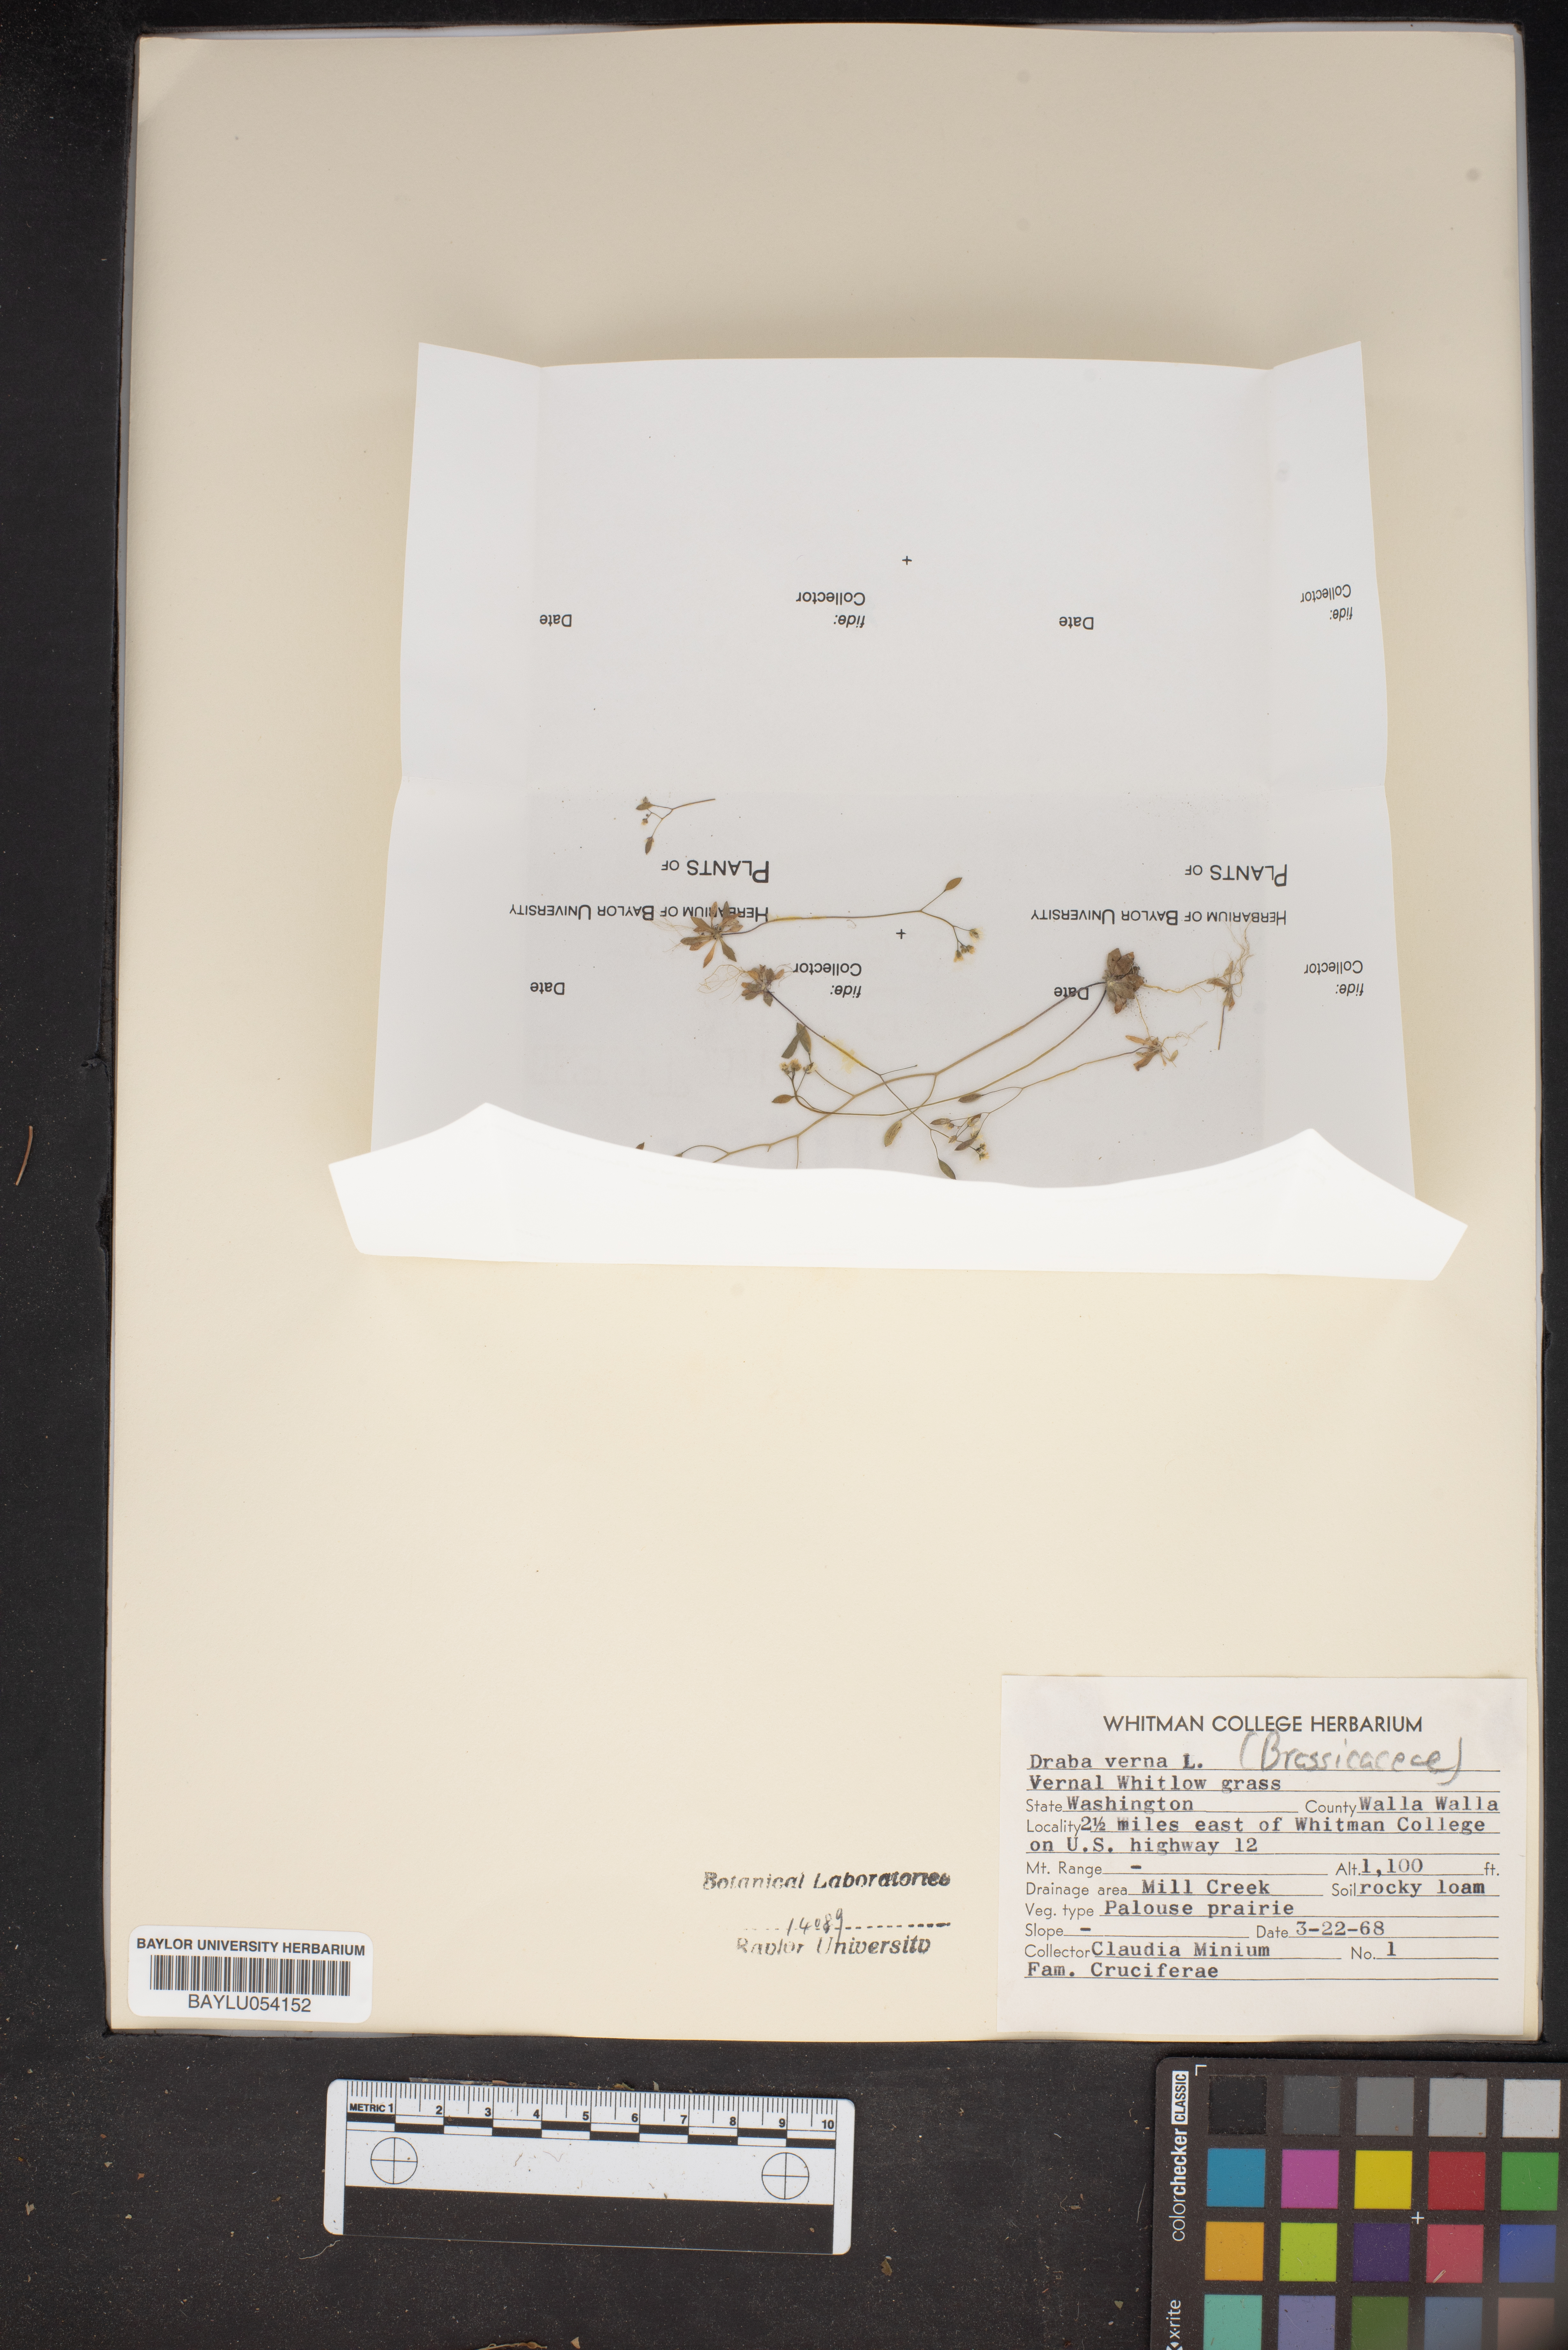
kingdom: Plantae
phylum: Tracheophyta
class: Magnoliopsida
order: Brassicales
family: Brassicaceae
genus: Draba
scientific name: Draba verna
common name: Spring draba
